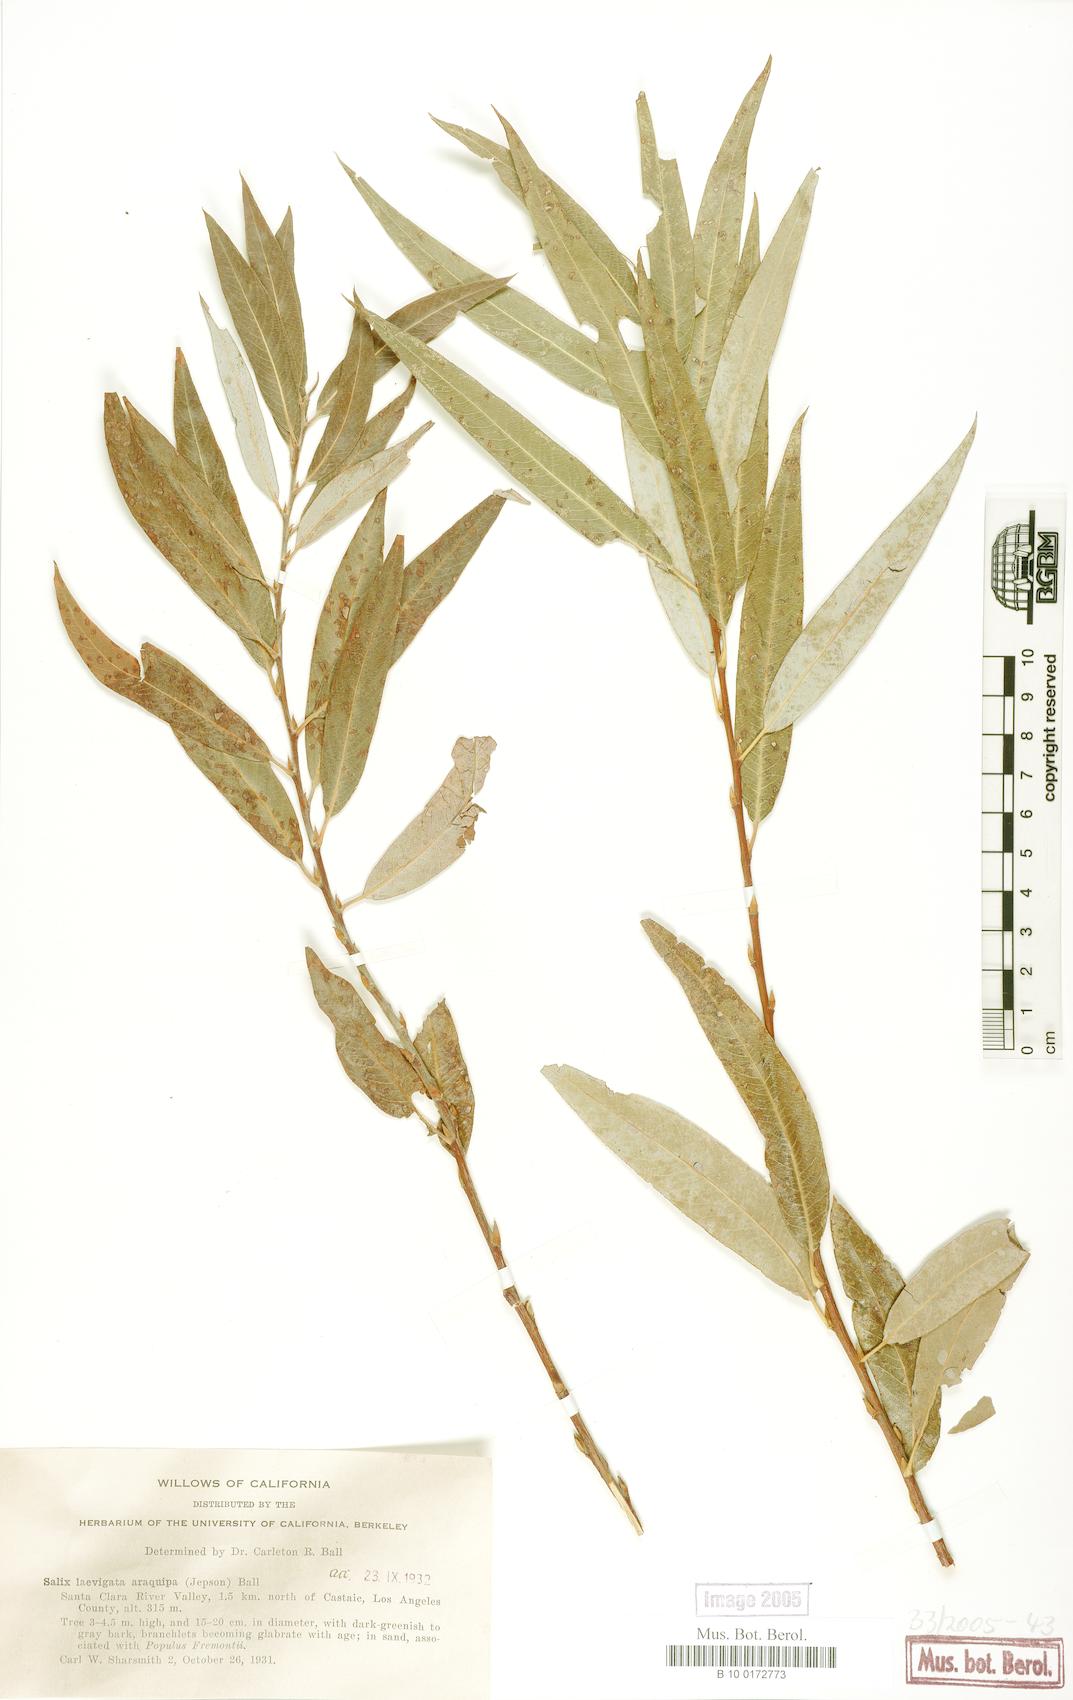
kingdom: Plantae
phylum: Tracheophyta
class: Magnoliopsida
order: Malpighiales
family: Salicaceae
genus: Salix
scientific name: Salix laevigata
